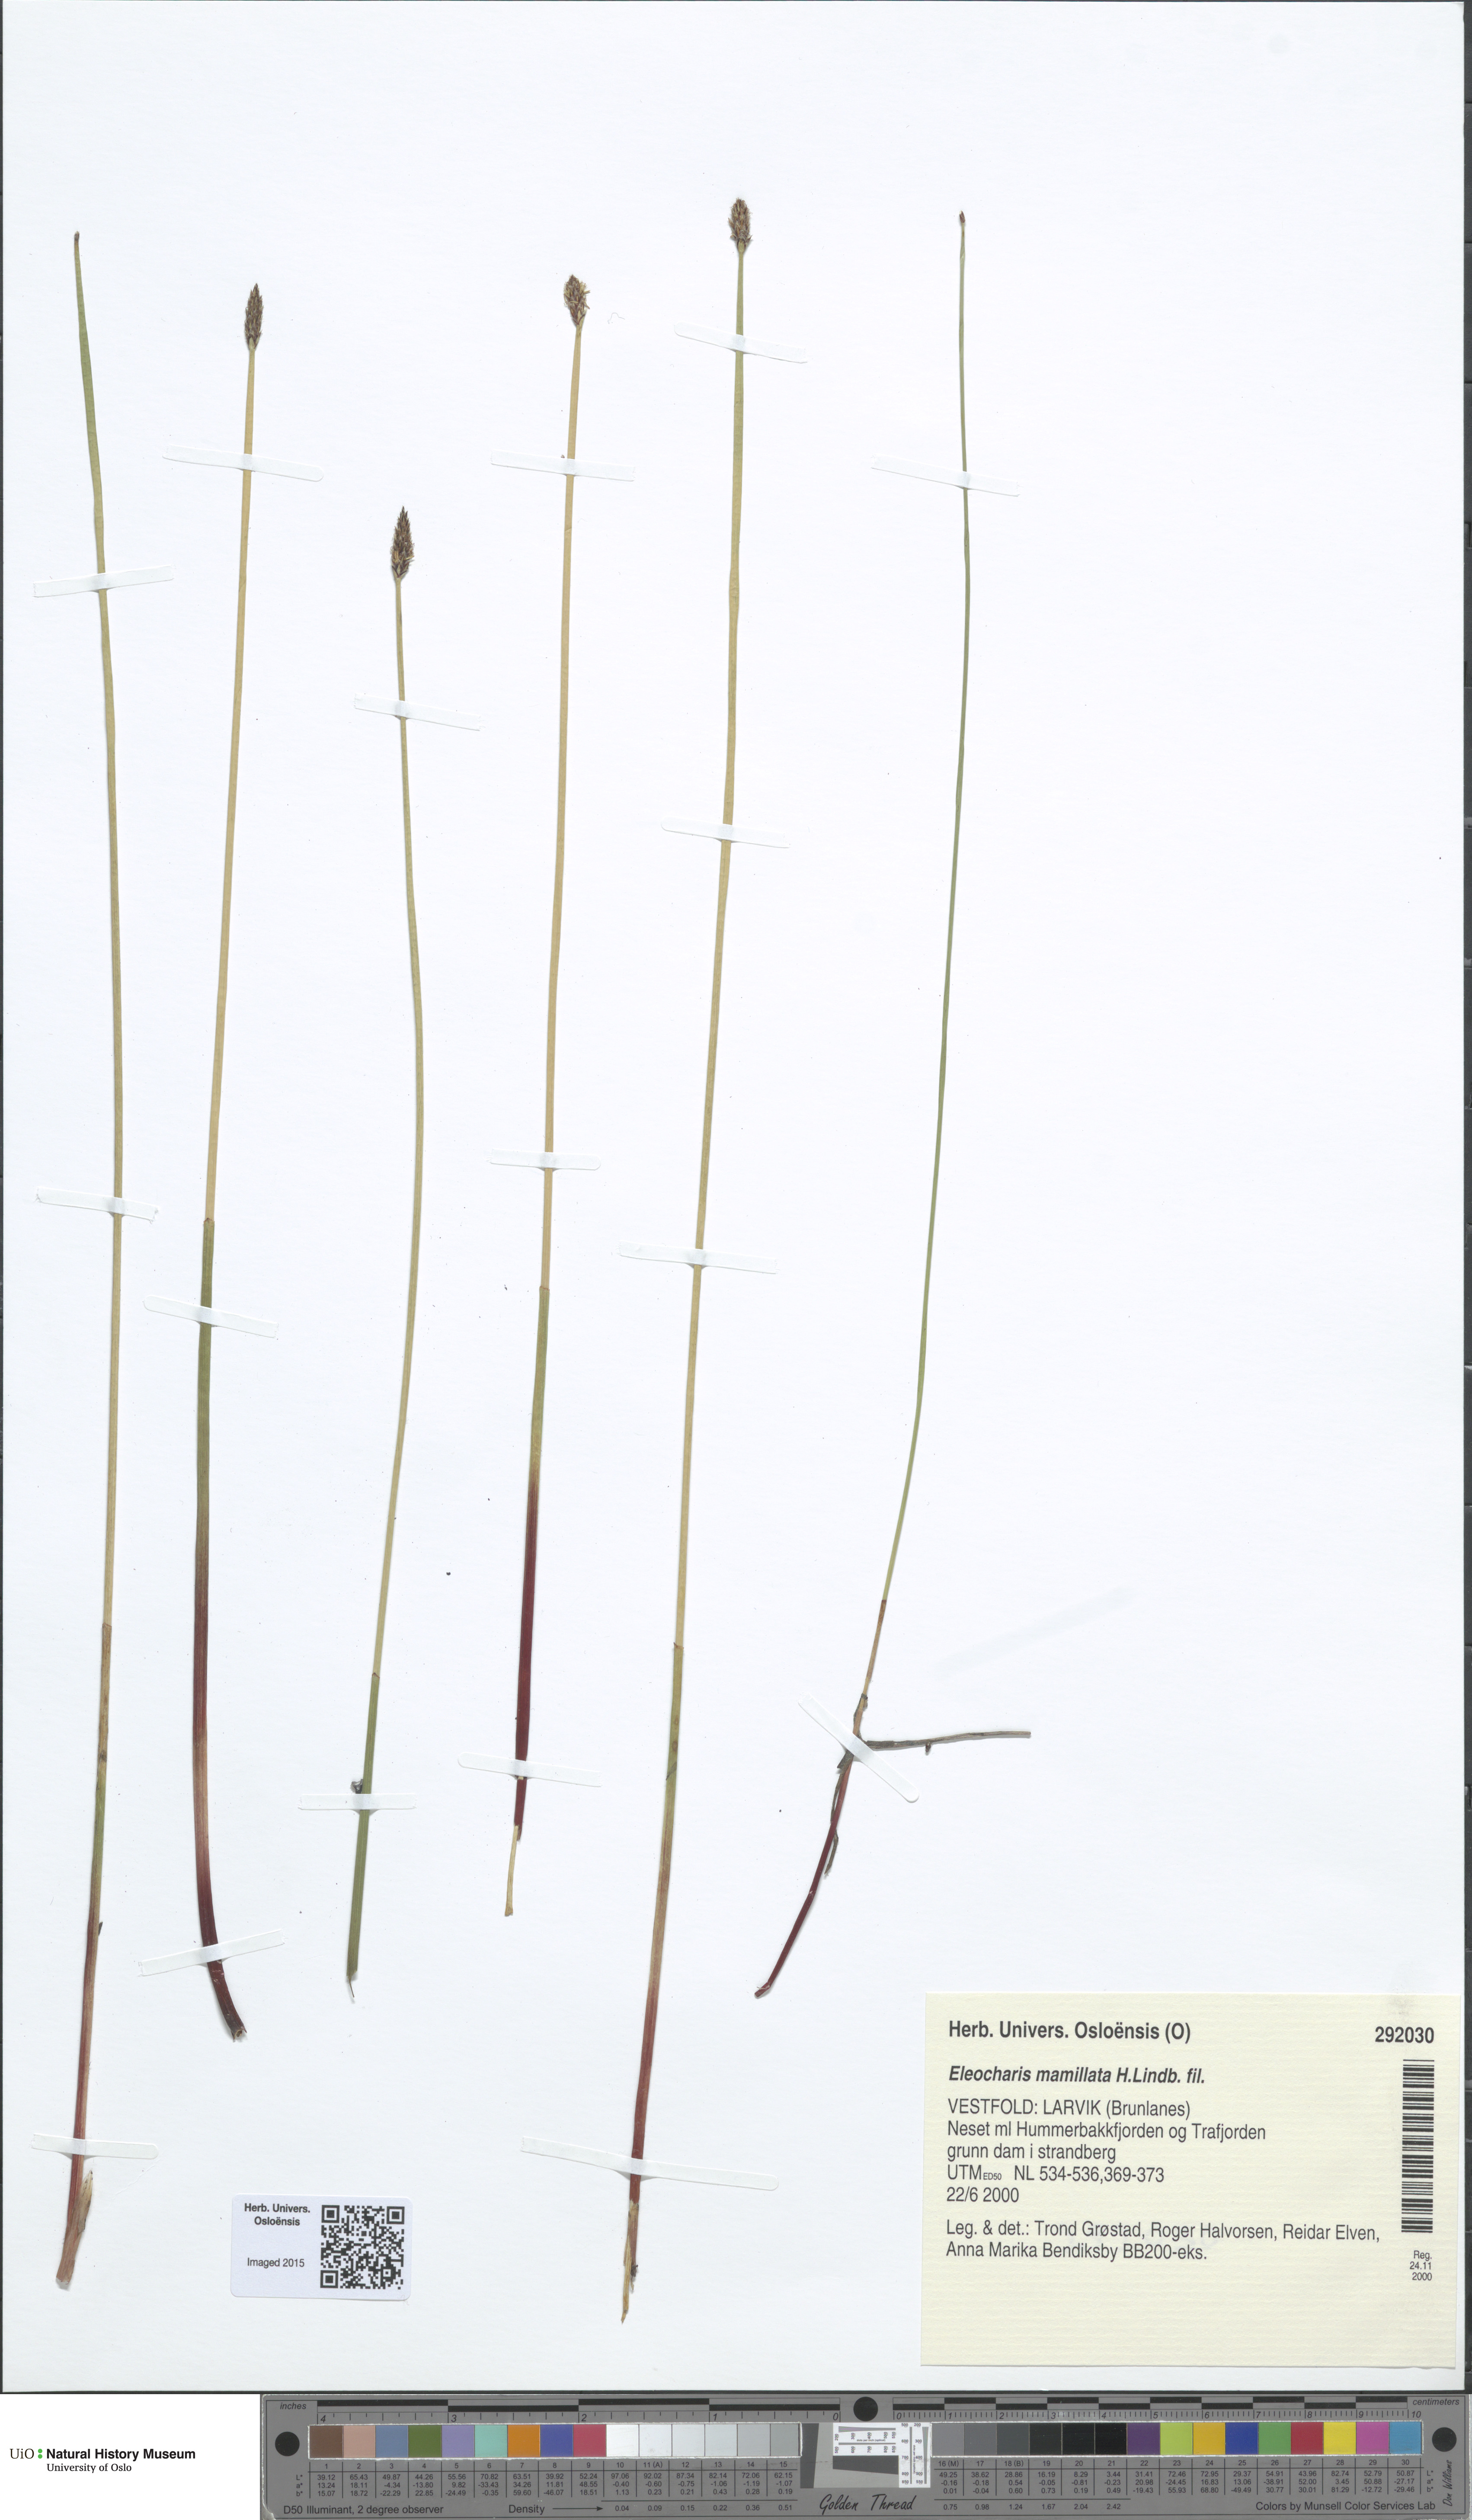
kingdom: Plantae
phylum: Tracheophyta
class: Liliopsida
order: Poales
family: Cyperaceae
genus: Eleocharis
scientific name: Eleocharis mamillata
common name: Northern spike-rush
